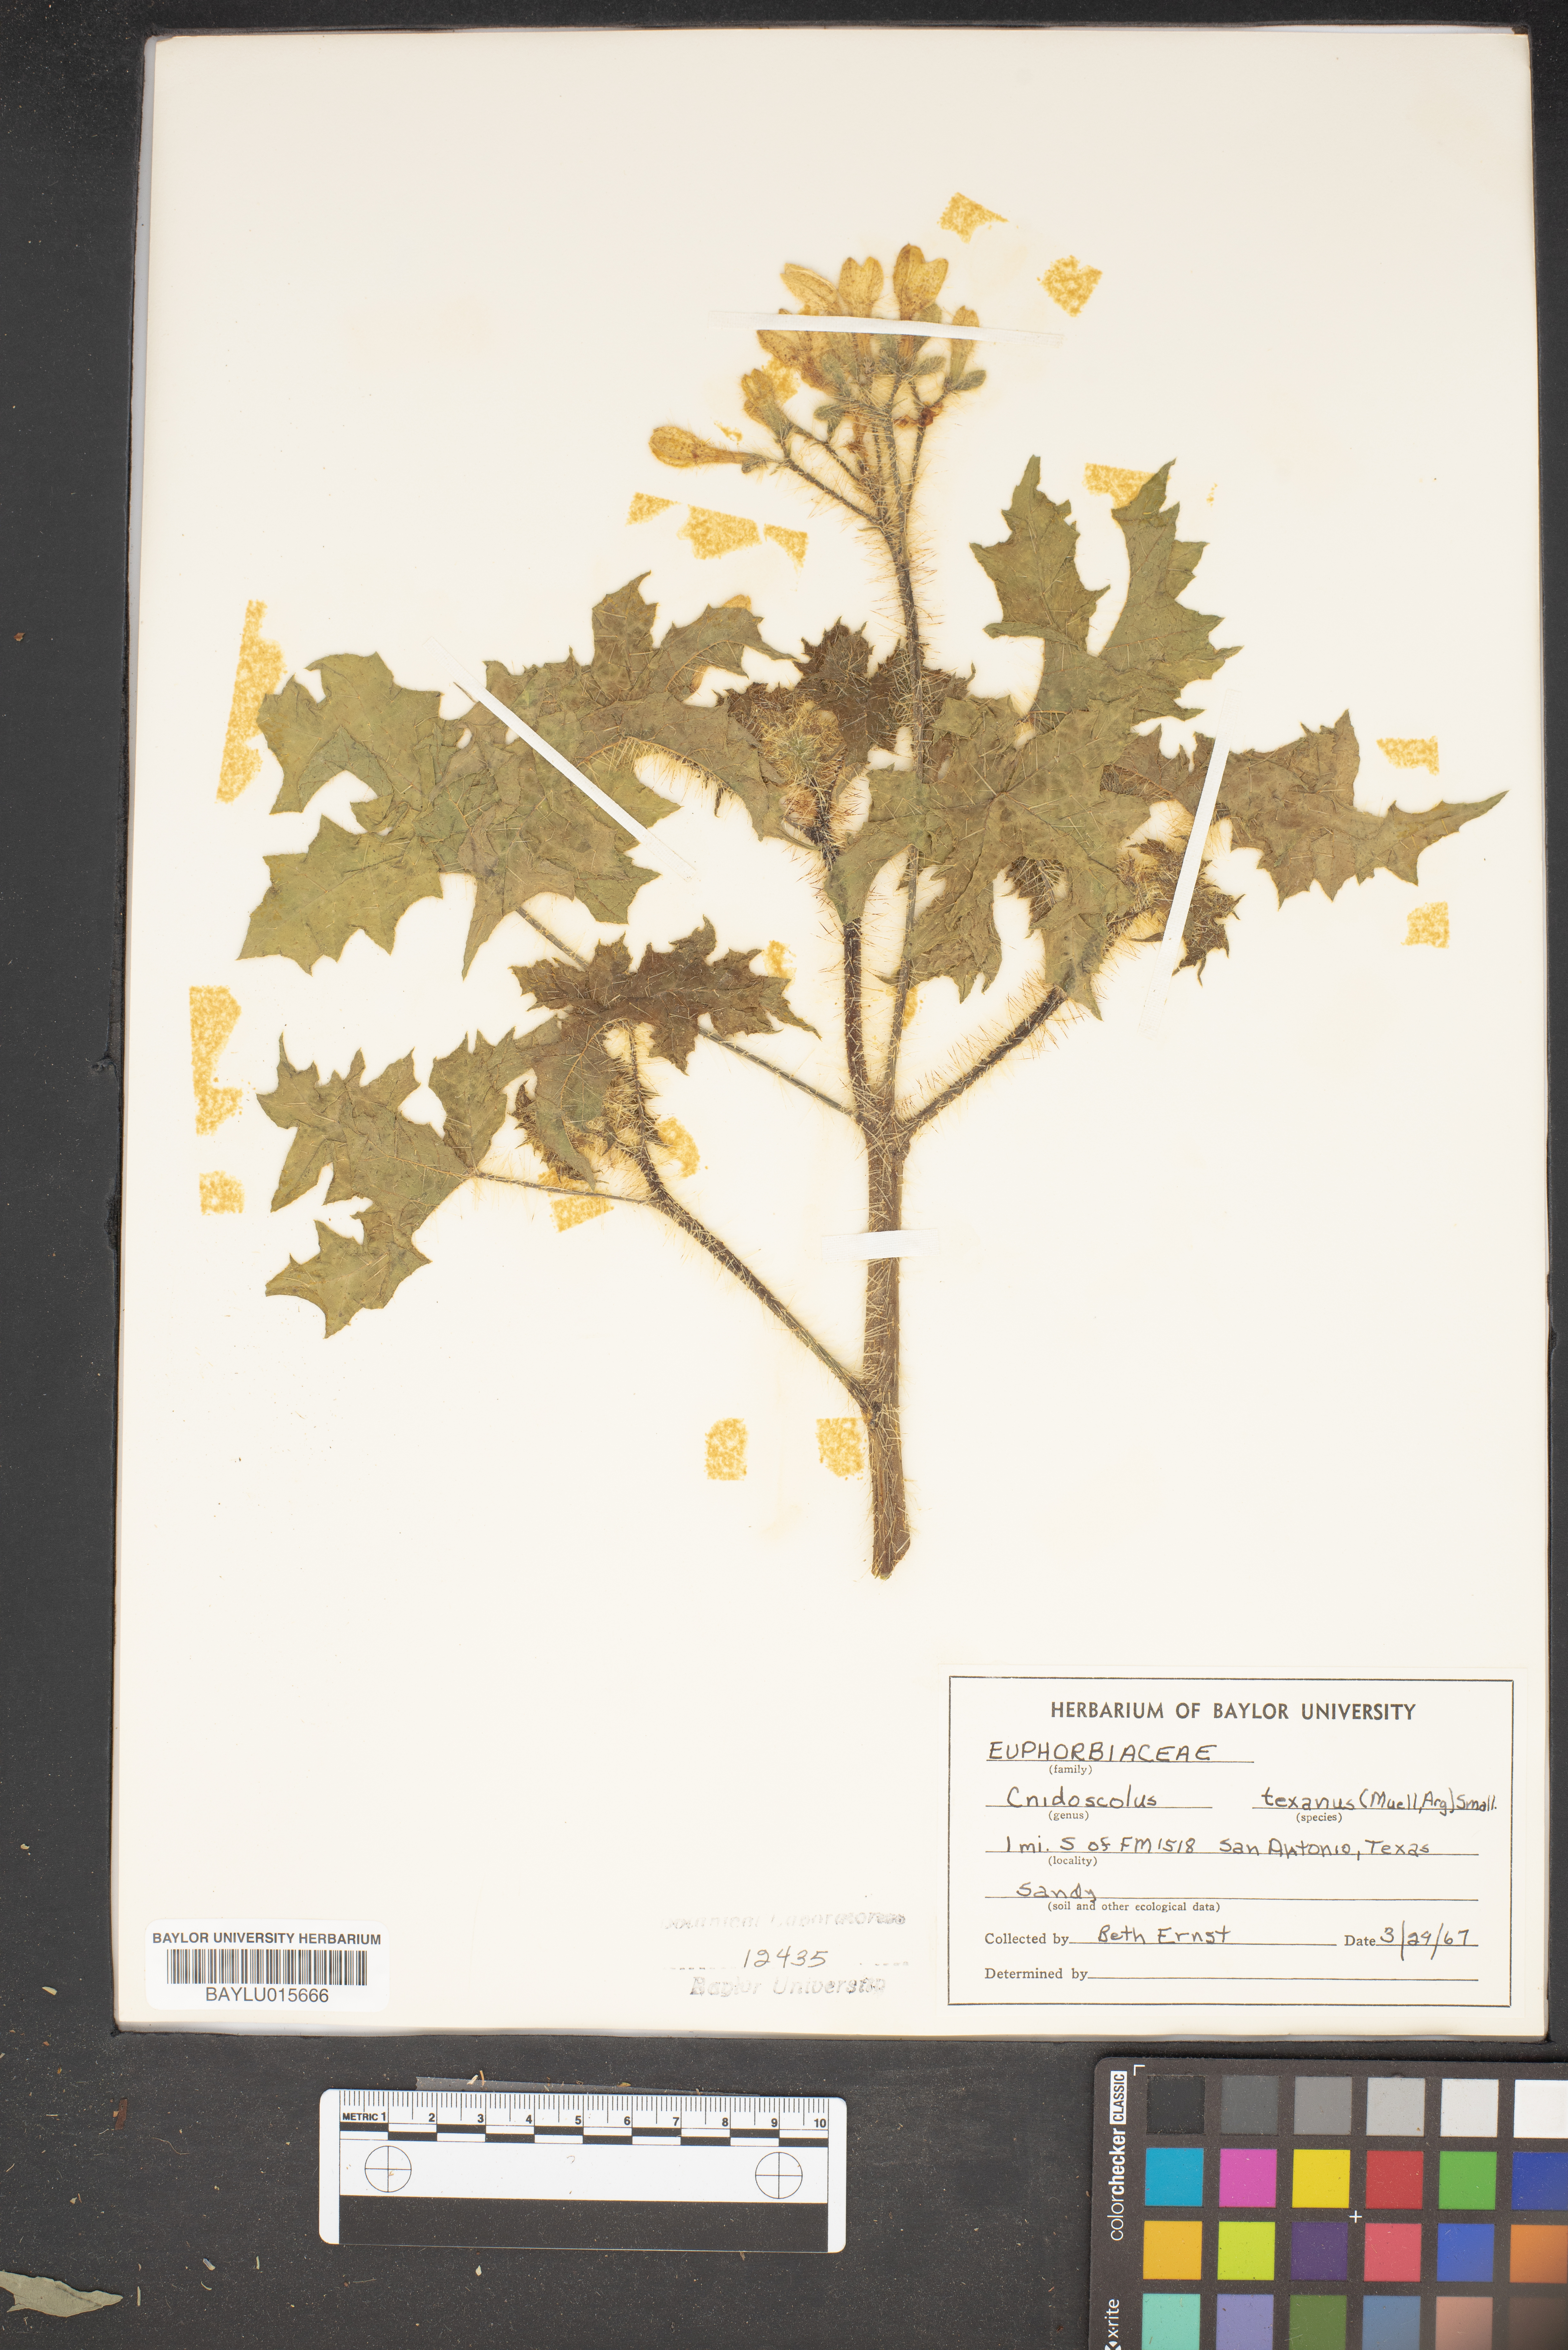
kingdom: Plantae
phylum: Tracheophyta
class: Magnoliopsida
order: Malpighiales
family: Euphorbiaceae
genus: Cnidoscolus
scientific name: Cnidoscolus texanus
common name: Texas bull-nettle
